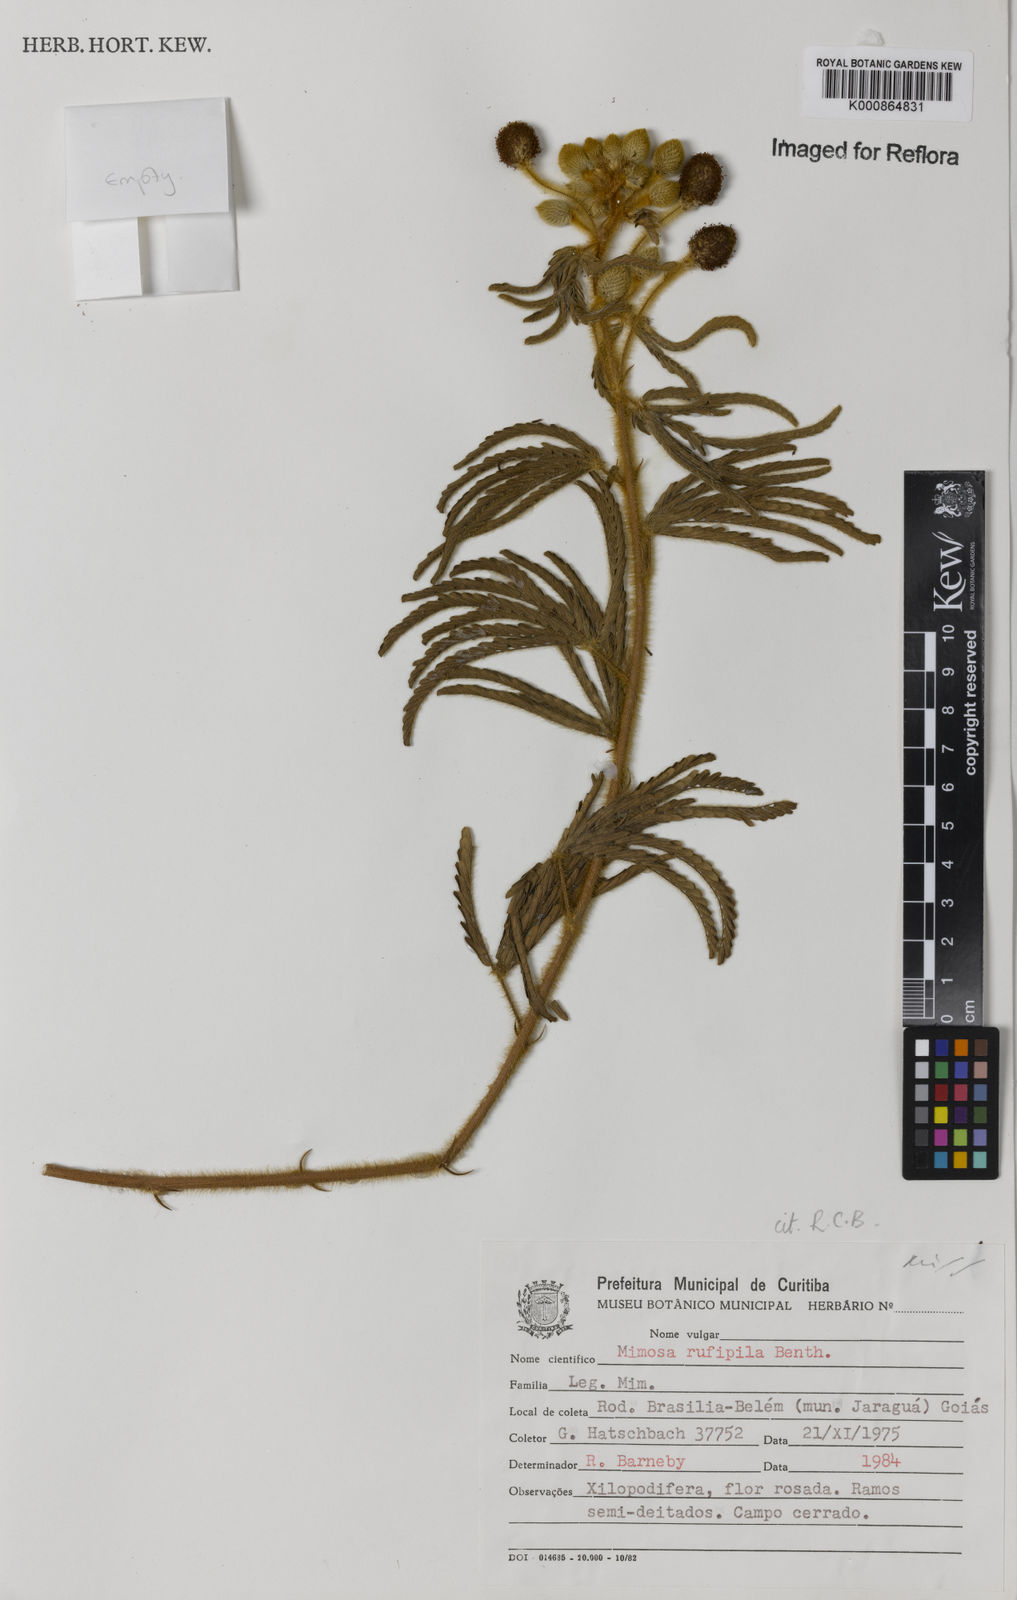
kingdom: Plantae
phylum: Tracheophyta
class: Magnoliopsida
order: Fabales
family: Fabaceae
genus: Mimosa
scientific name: Mimosa rufipila
